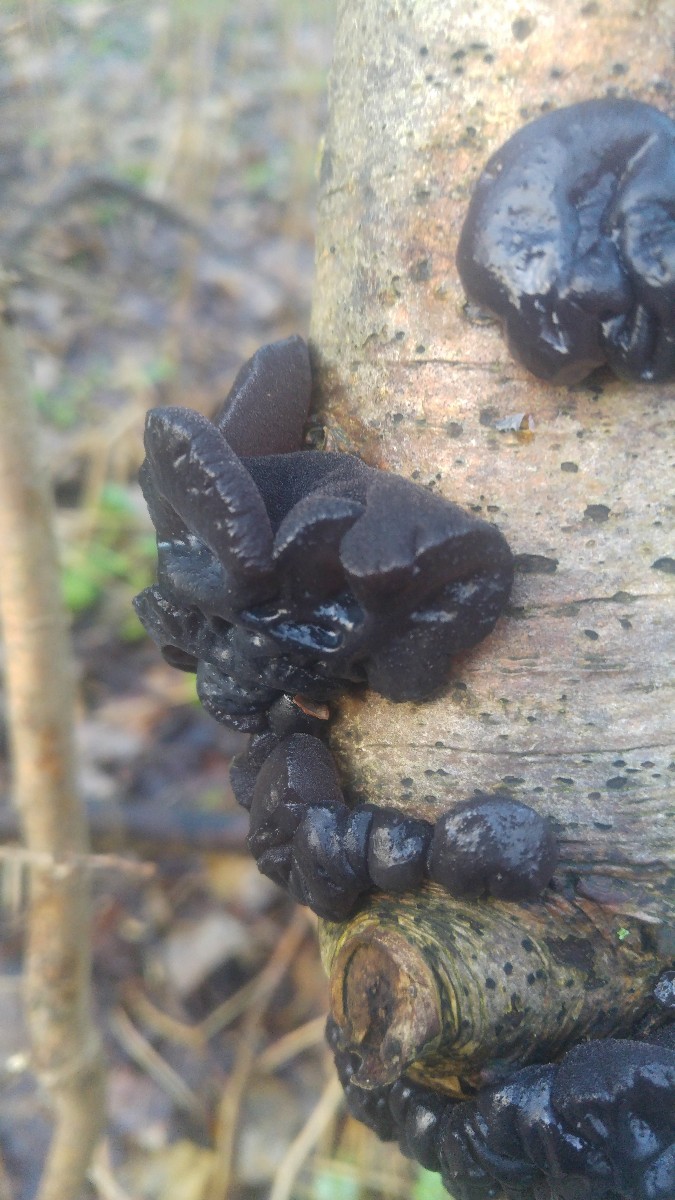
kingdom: Fungi
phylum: Basidiomycota
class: Agaricomycetes
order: Auriculariales
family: Auriculariaceae
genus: Exidia
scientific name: Exidia glandulosa
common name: ege-bævretop
